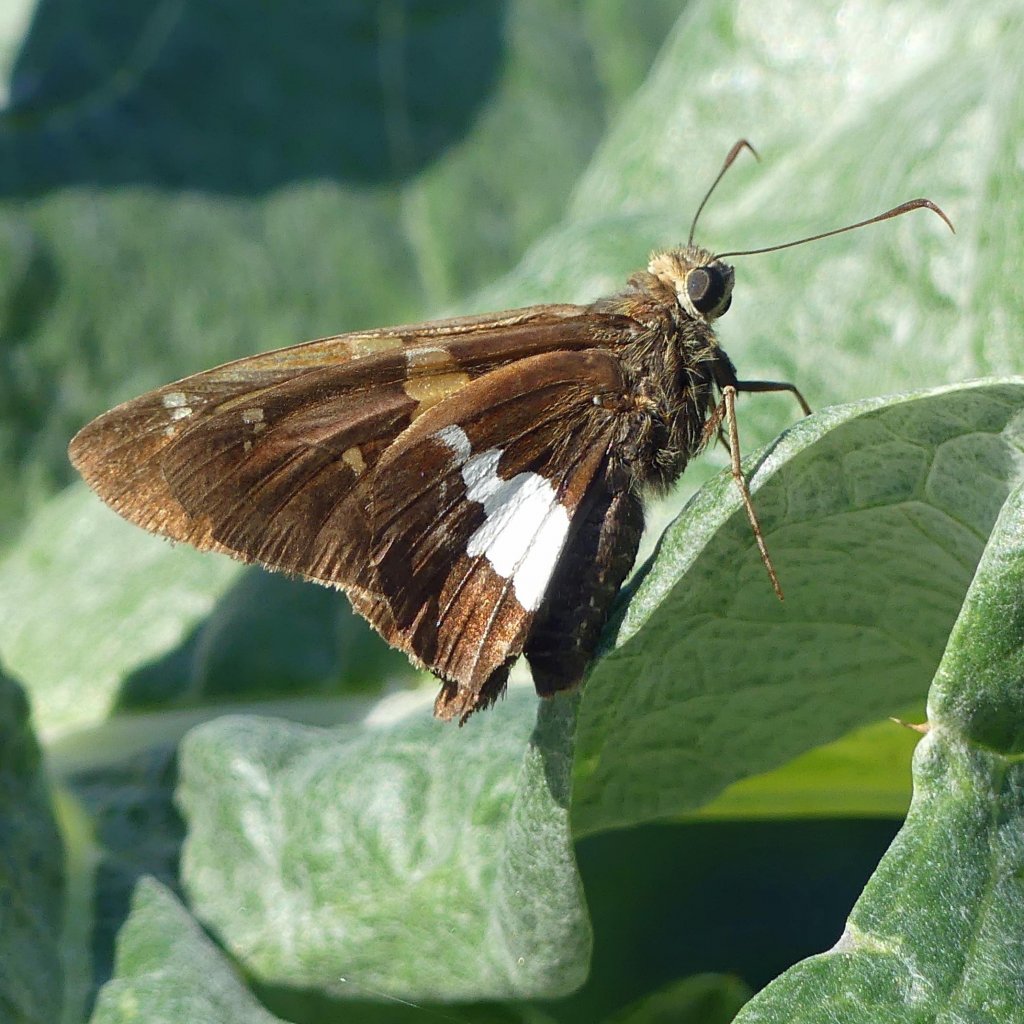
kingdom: Animalia
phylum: Arthropoda
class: Insecta
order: Lepidoptera
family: Hesperiidae
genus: Epargyreus
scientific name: Epargyreus clarus
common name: Silver-spotted Skipper
